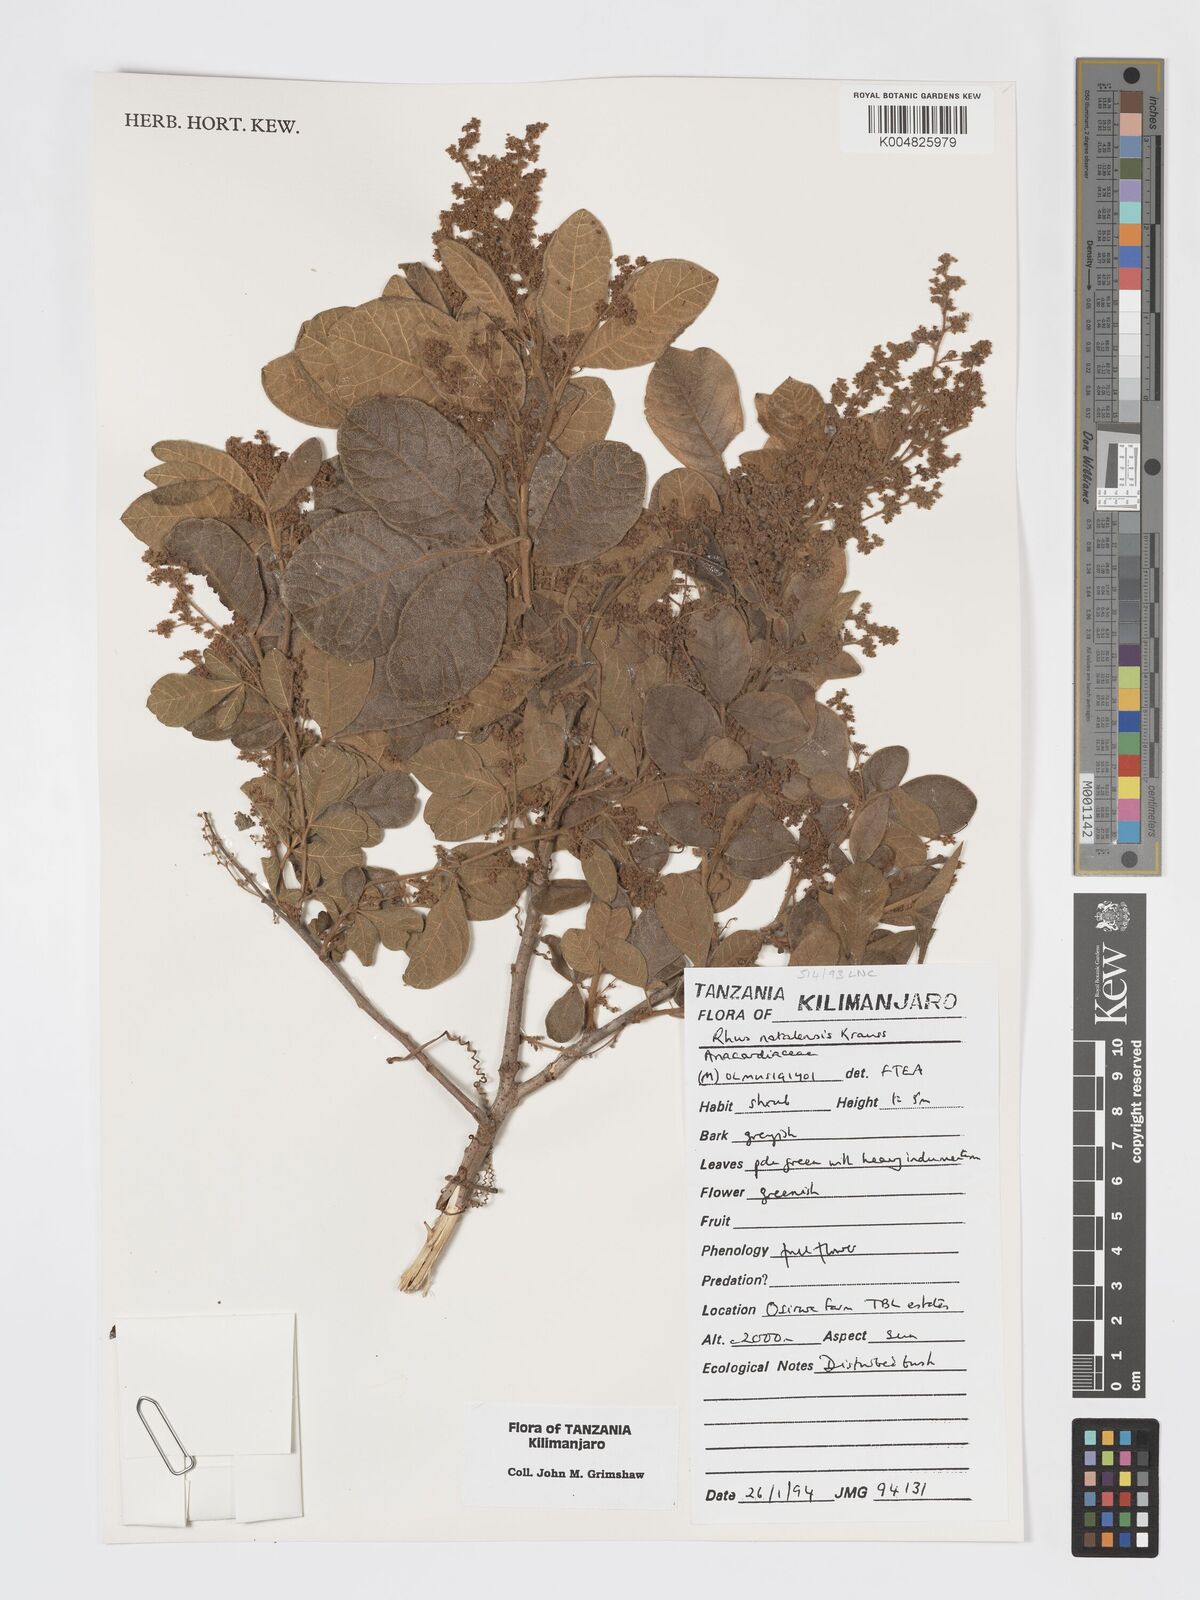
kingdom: Plantae
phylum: Tracheophyta
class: Magnoliopsida
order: Sapindales
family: Anacardiaceae
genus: Searsia
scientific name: Searsia natalensis
